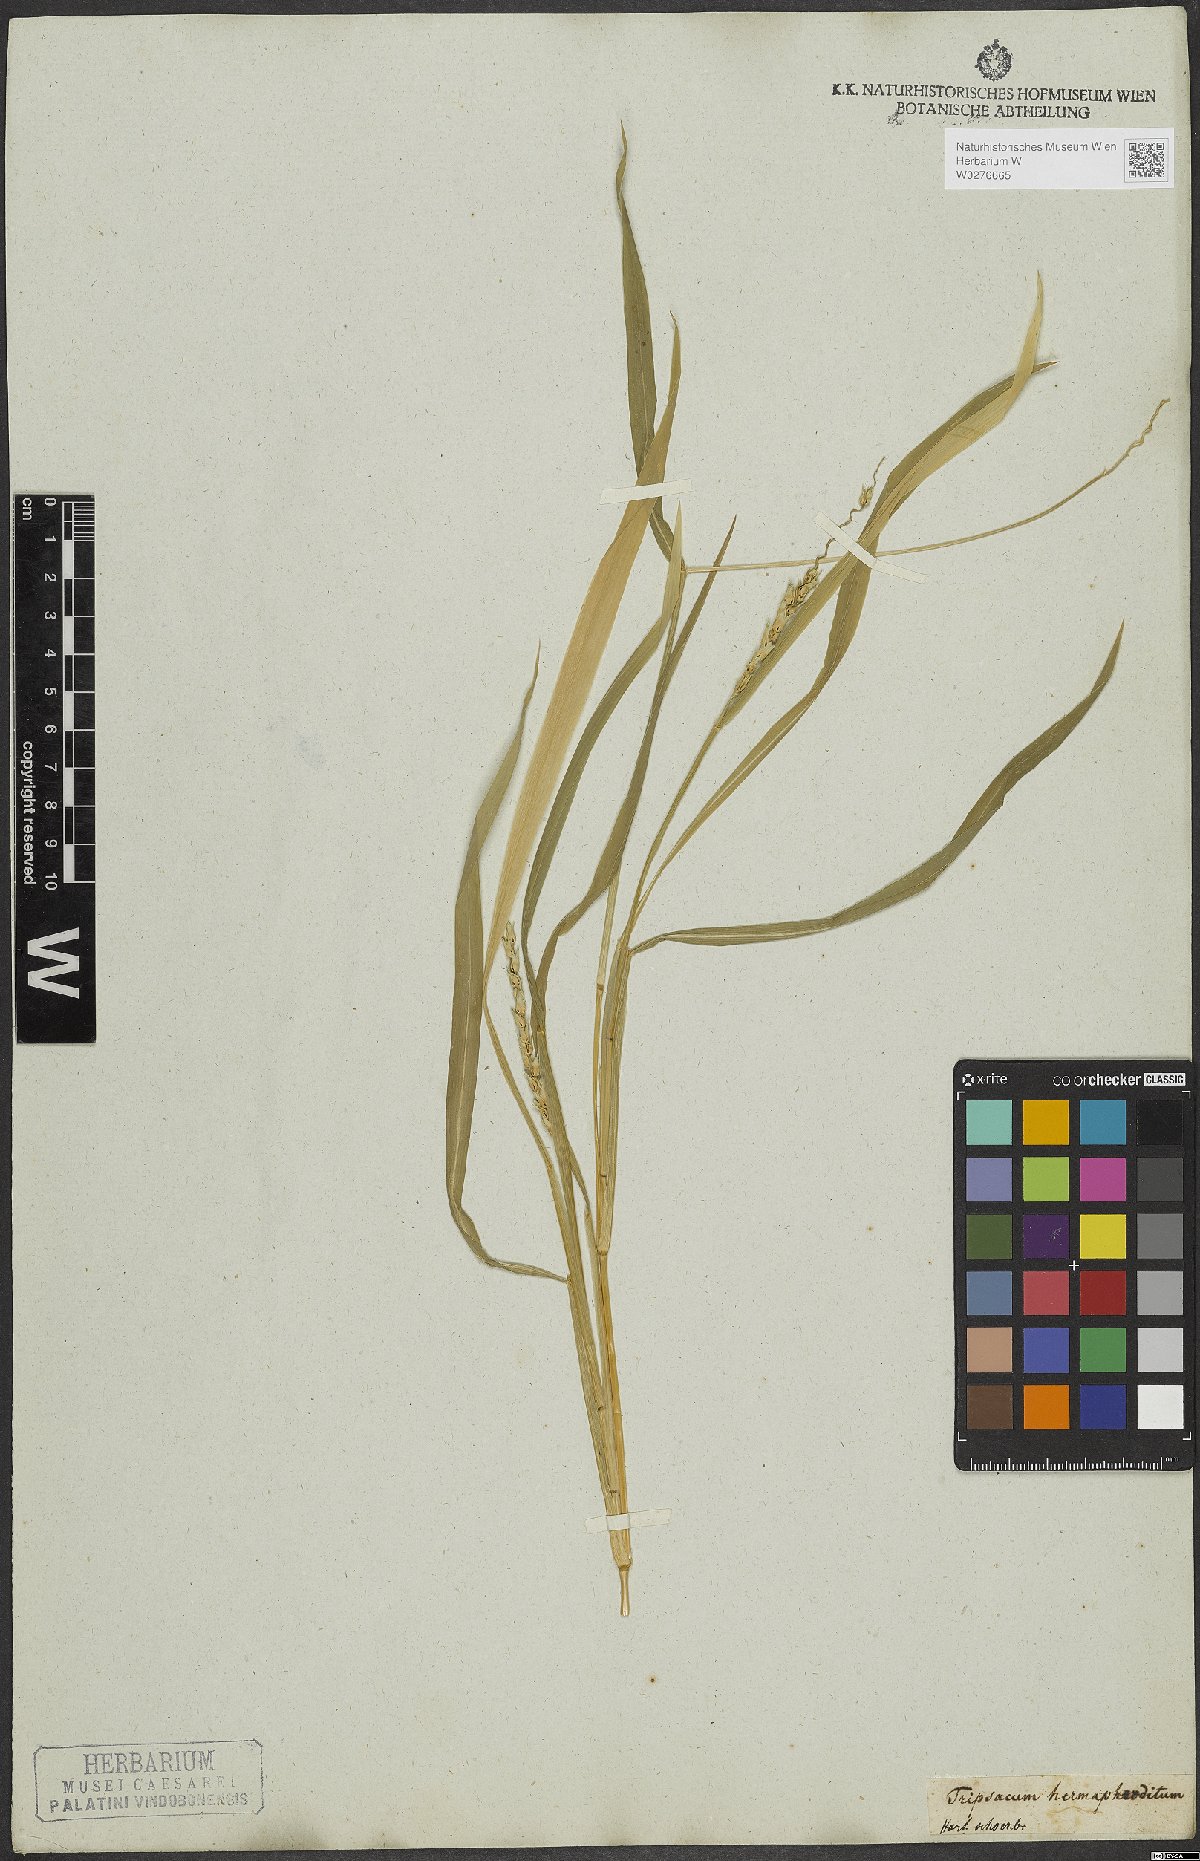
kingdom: Plantae
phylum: Tracheophyta
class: Liliopsida
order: Poales
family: Poaceae
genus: Anthephora
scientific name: Anthephora hermaphrodita
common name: Oldfield grass
